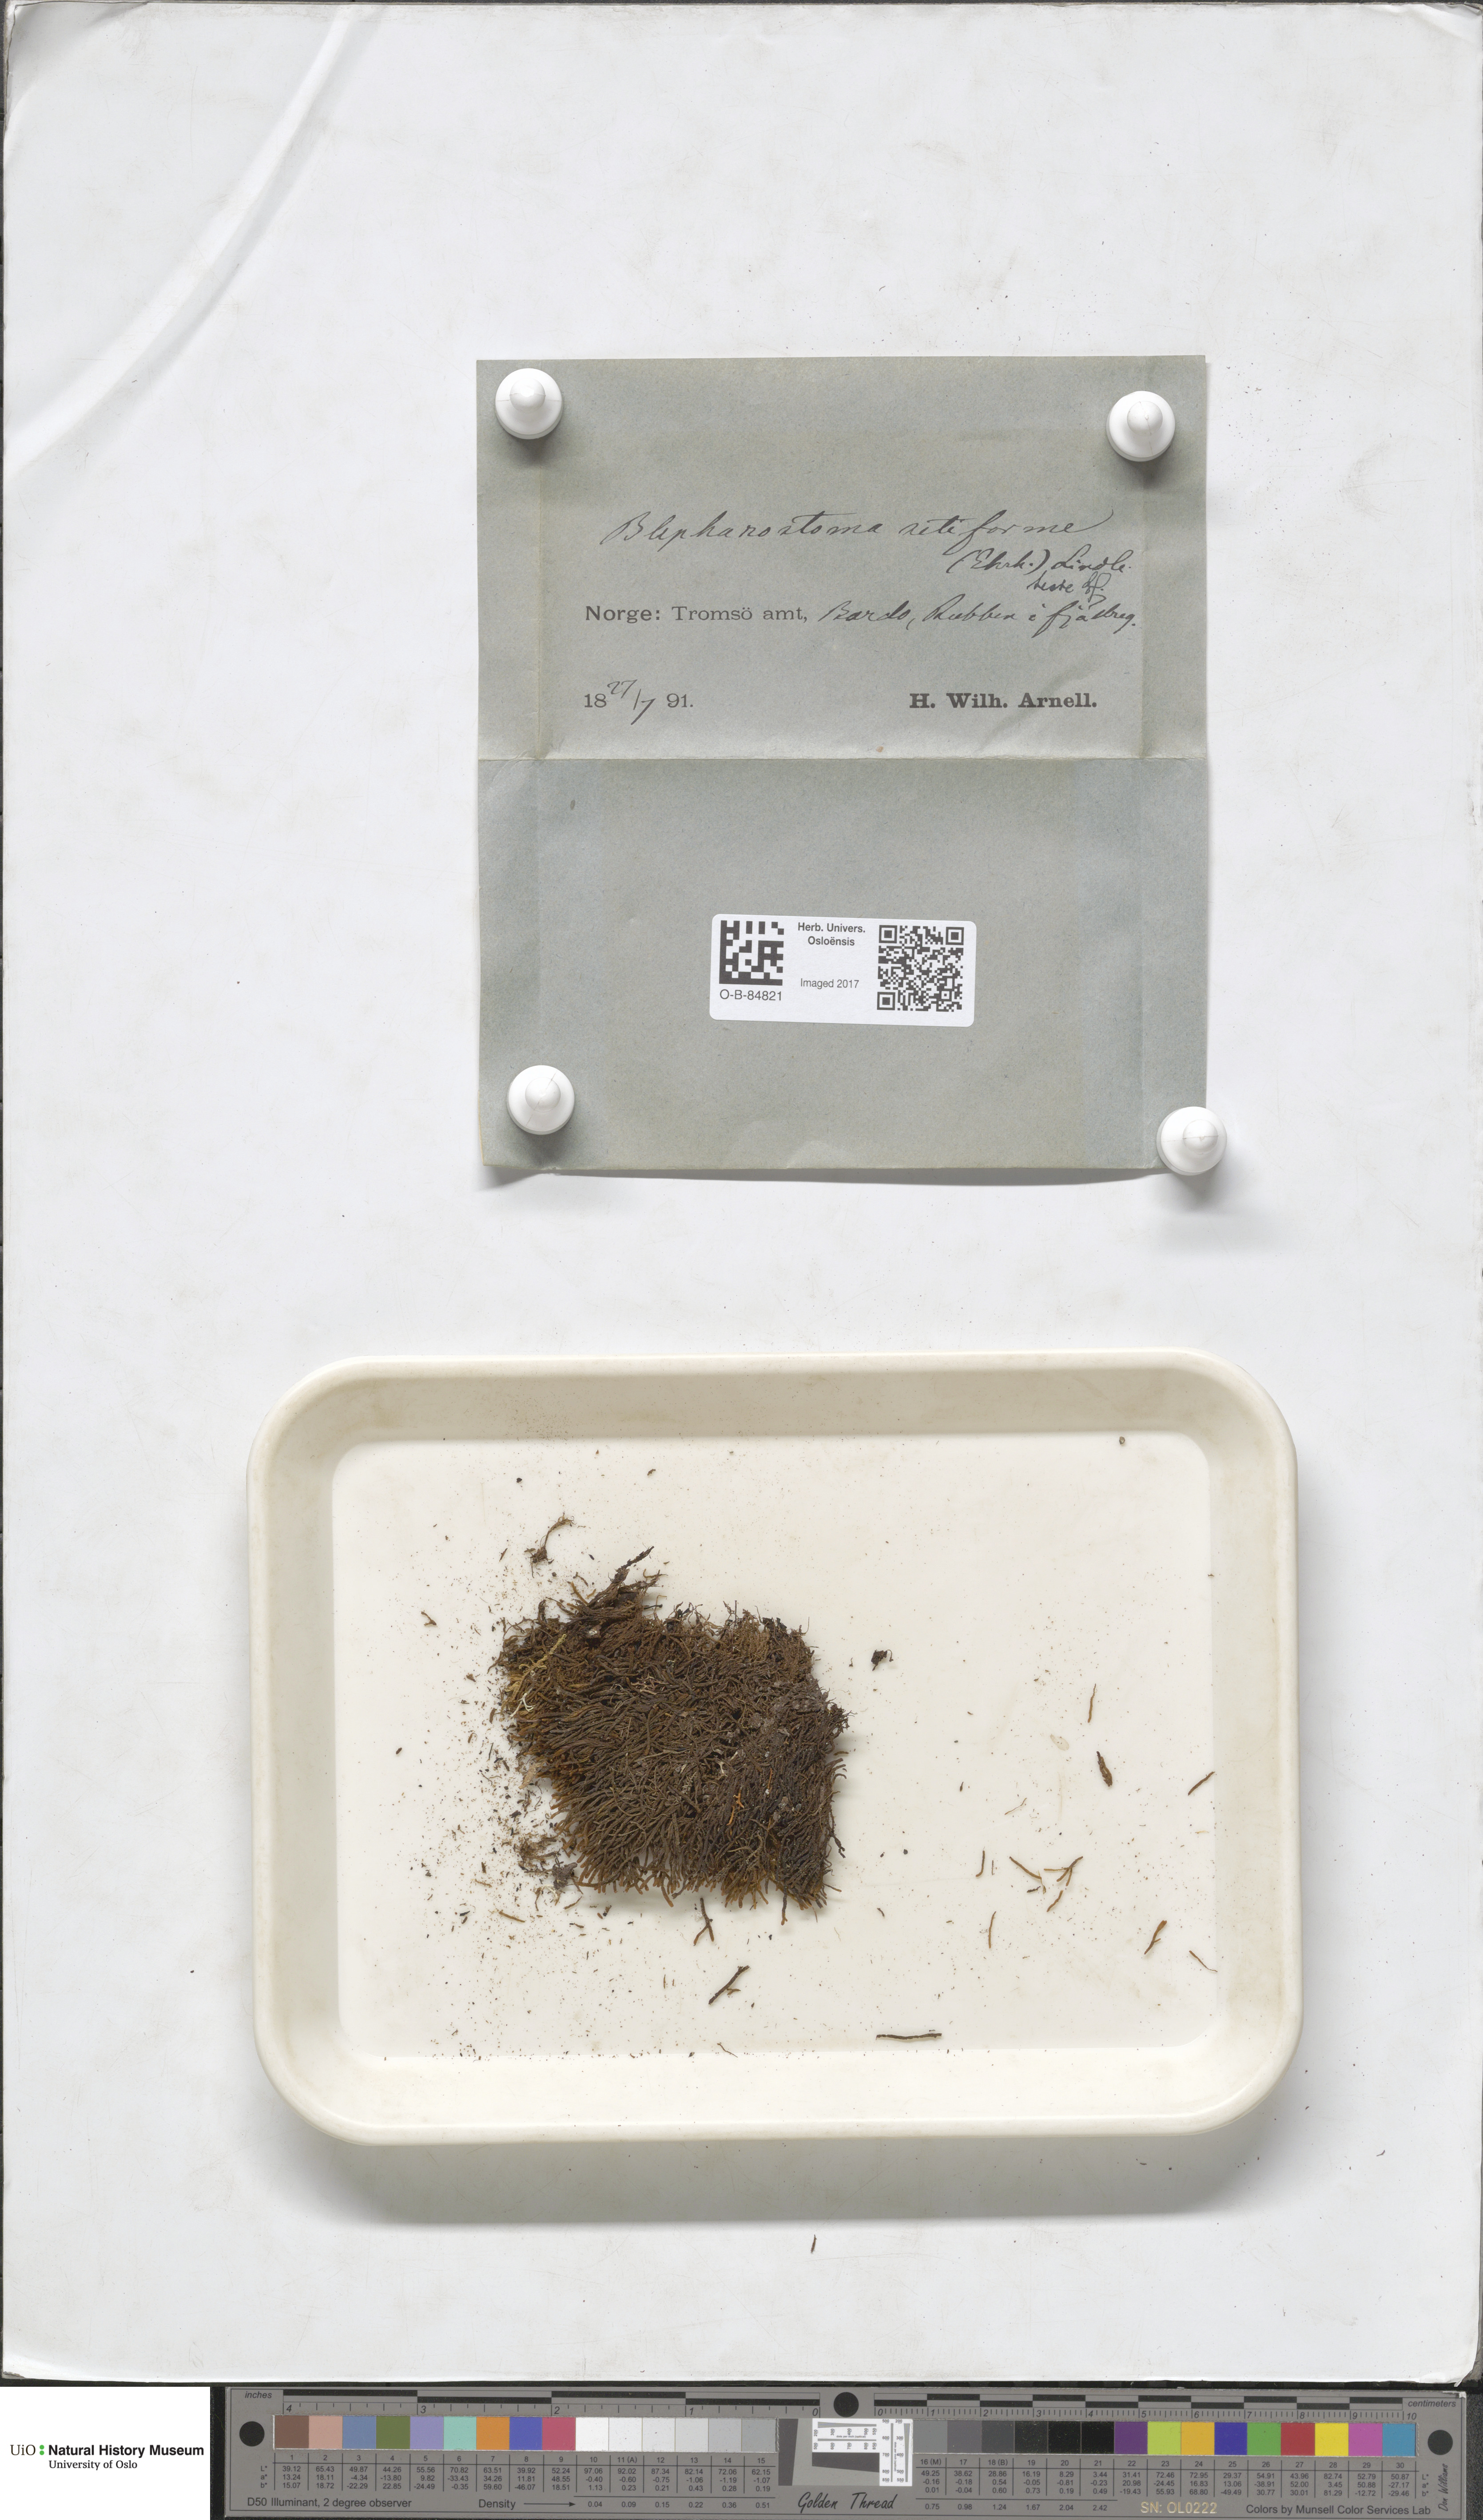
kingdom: Plantae
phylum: Marchantiophyta
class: Jungermanniopsida
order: Jungermanniales
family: Anastrophyllaceae
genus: Tetralophozia
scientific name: Tetralophozia setiformis
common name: Monster pawwort
